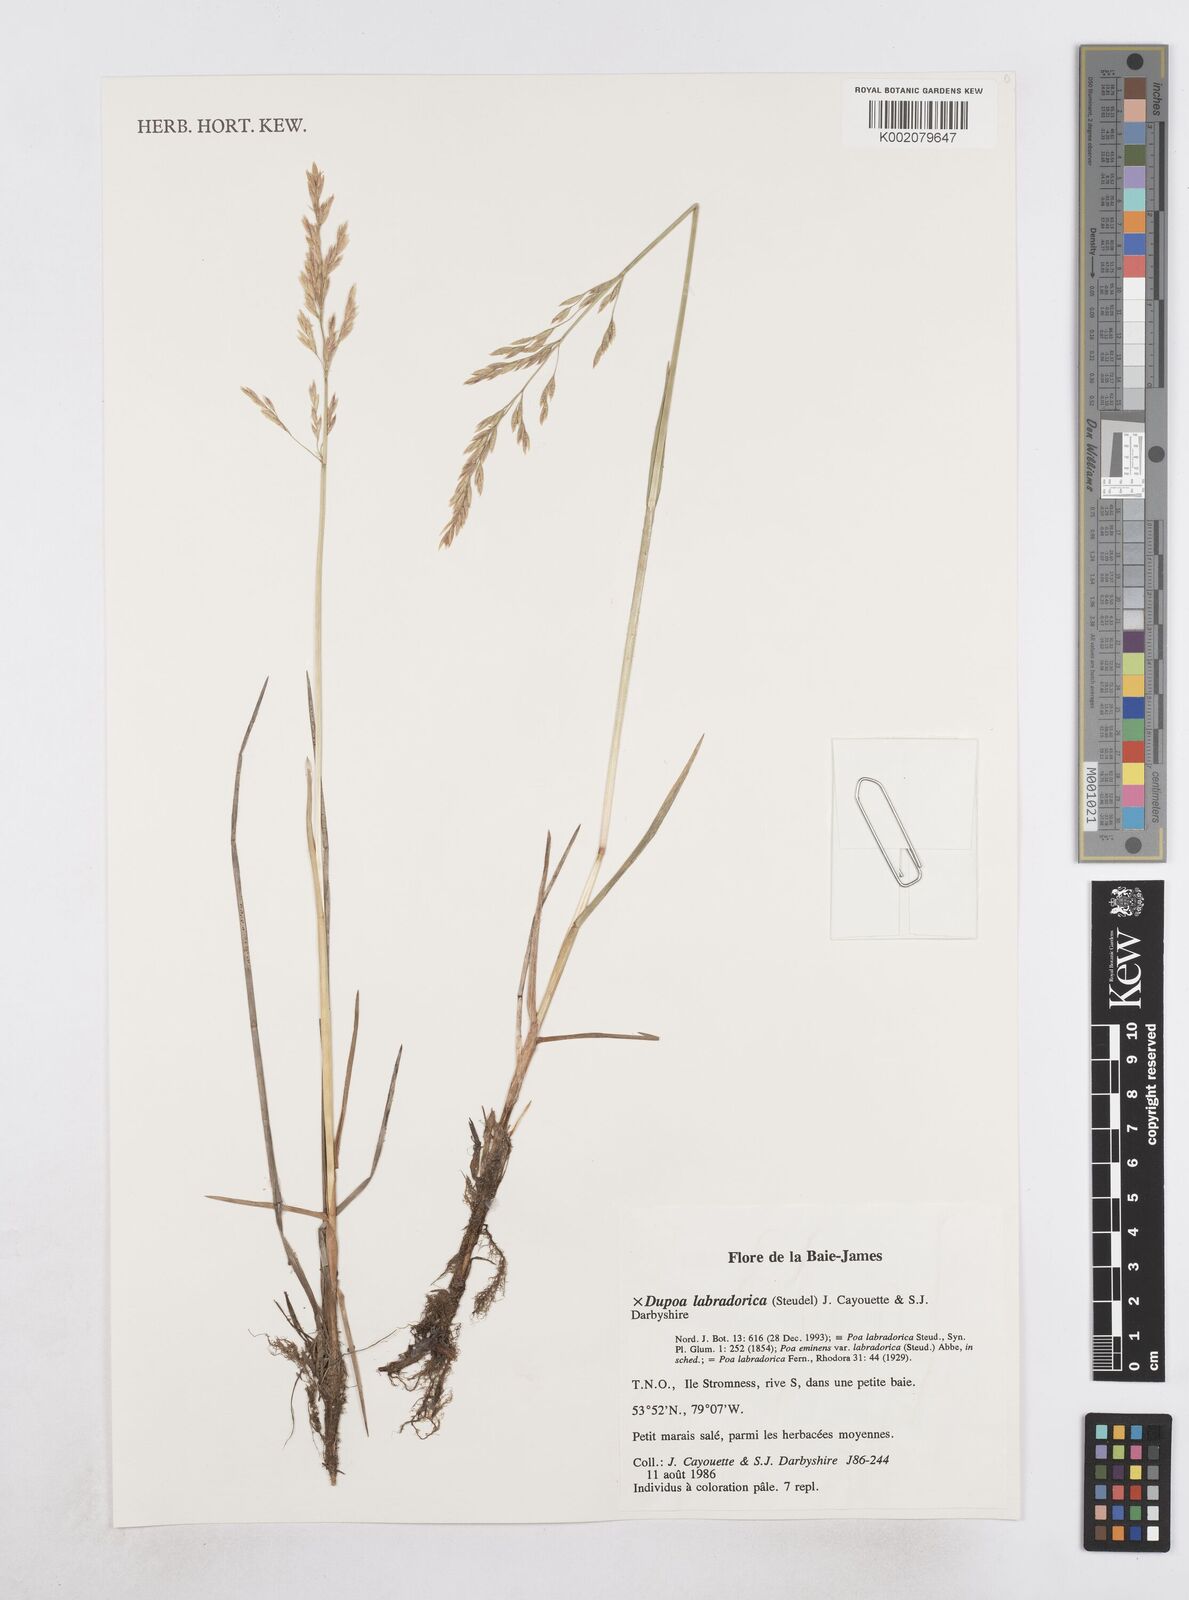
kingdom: Plantae
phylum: Tracheophyta
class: Liliopsida
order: Poales
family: Poaceae
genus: Dupontia
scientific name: Dupontia
